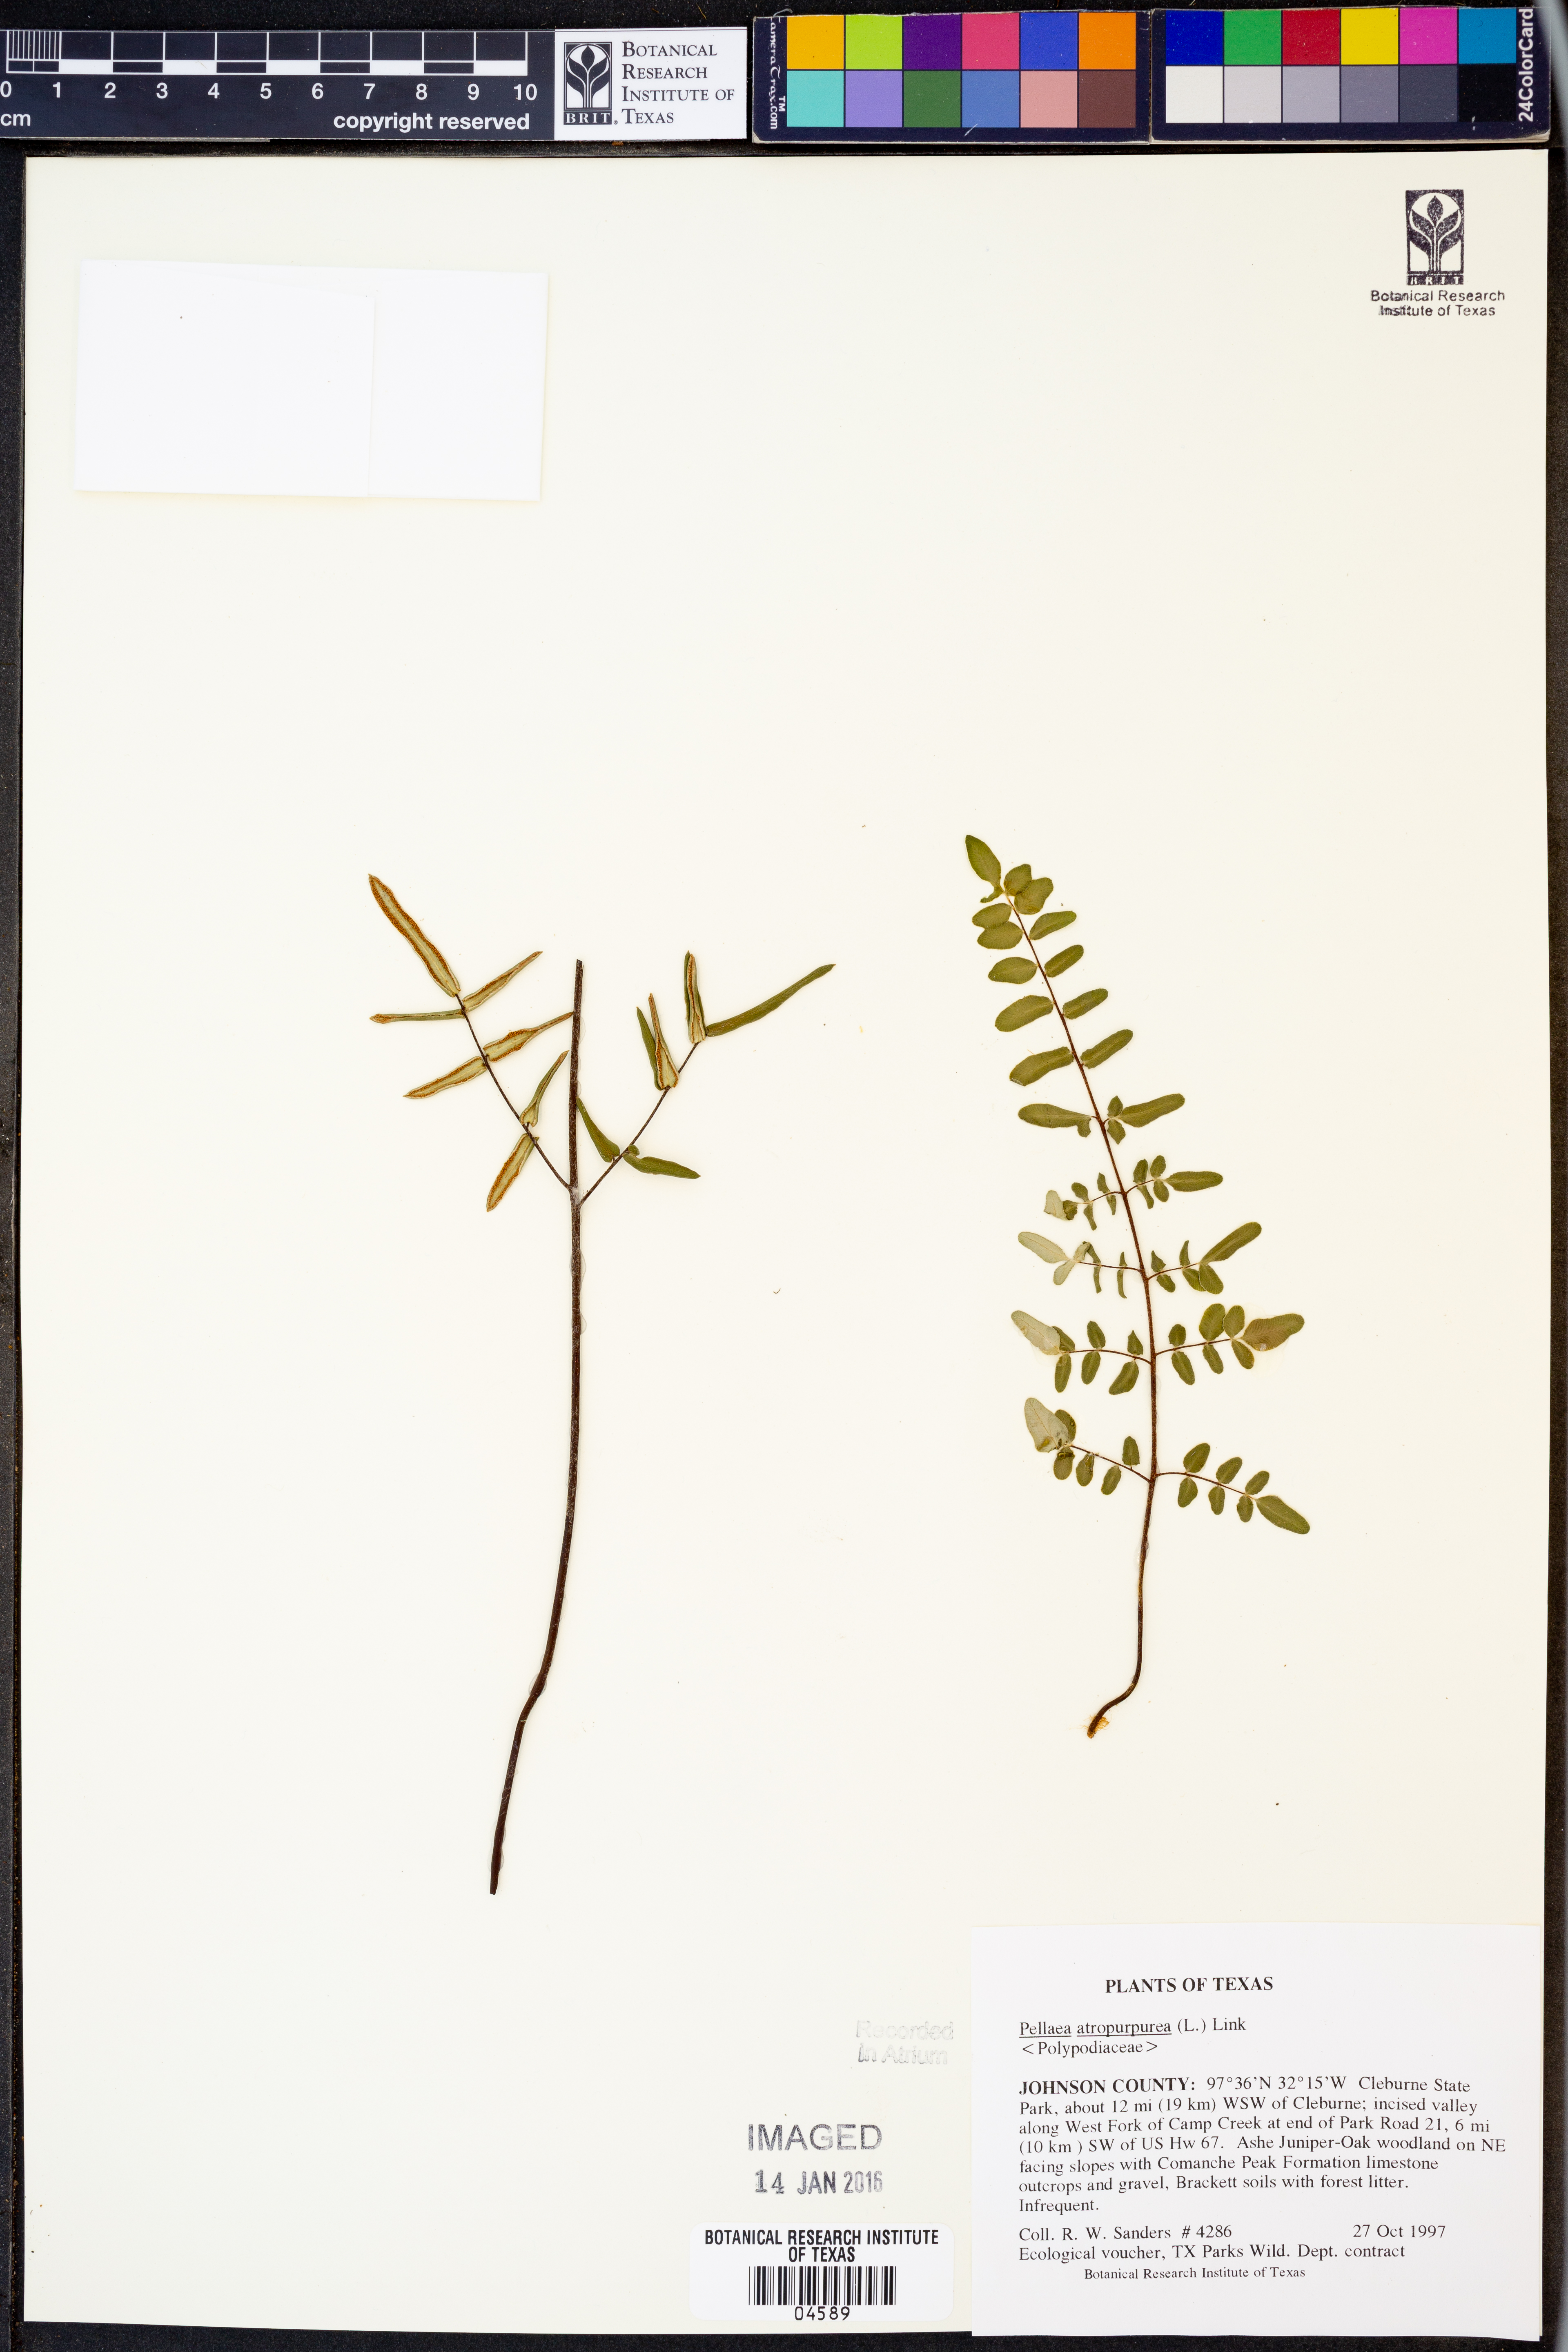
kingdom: Plantae
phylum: Tracheophyta
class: Polypodiopsida
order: Polypodiales
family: Pteridaceae
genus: Pellaea
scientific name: Pellaea atropurpurea
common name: Hairy cliffbrake
